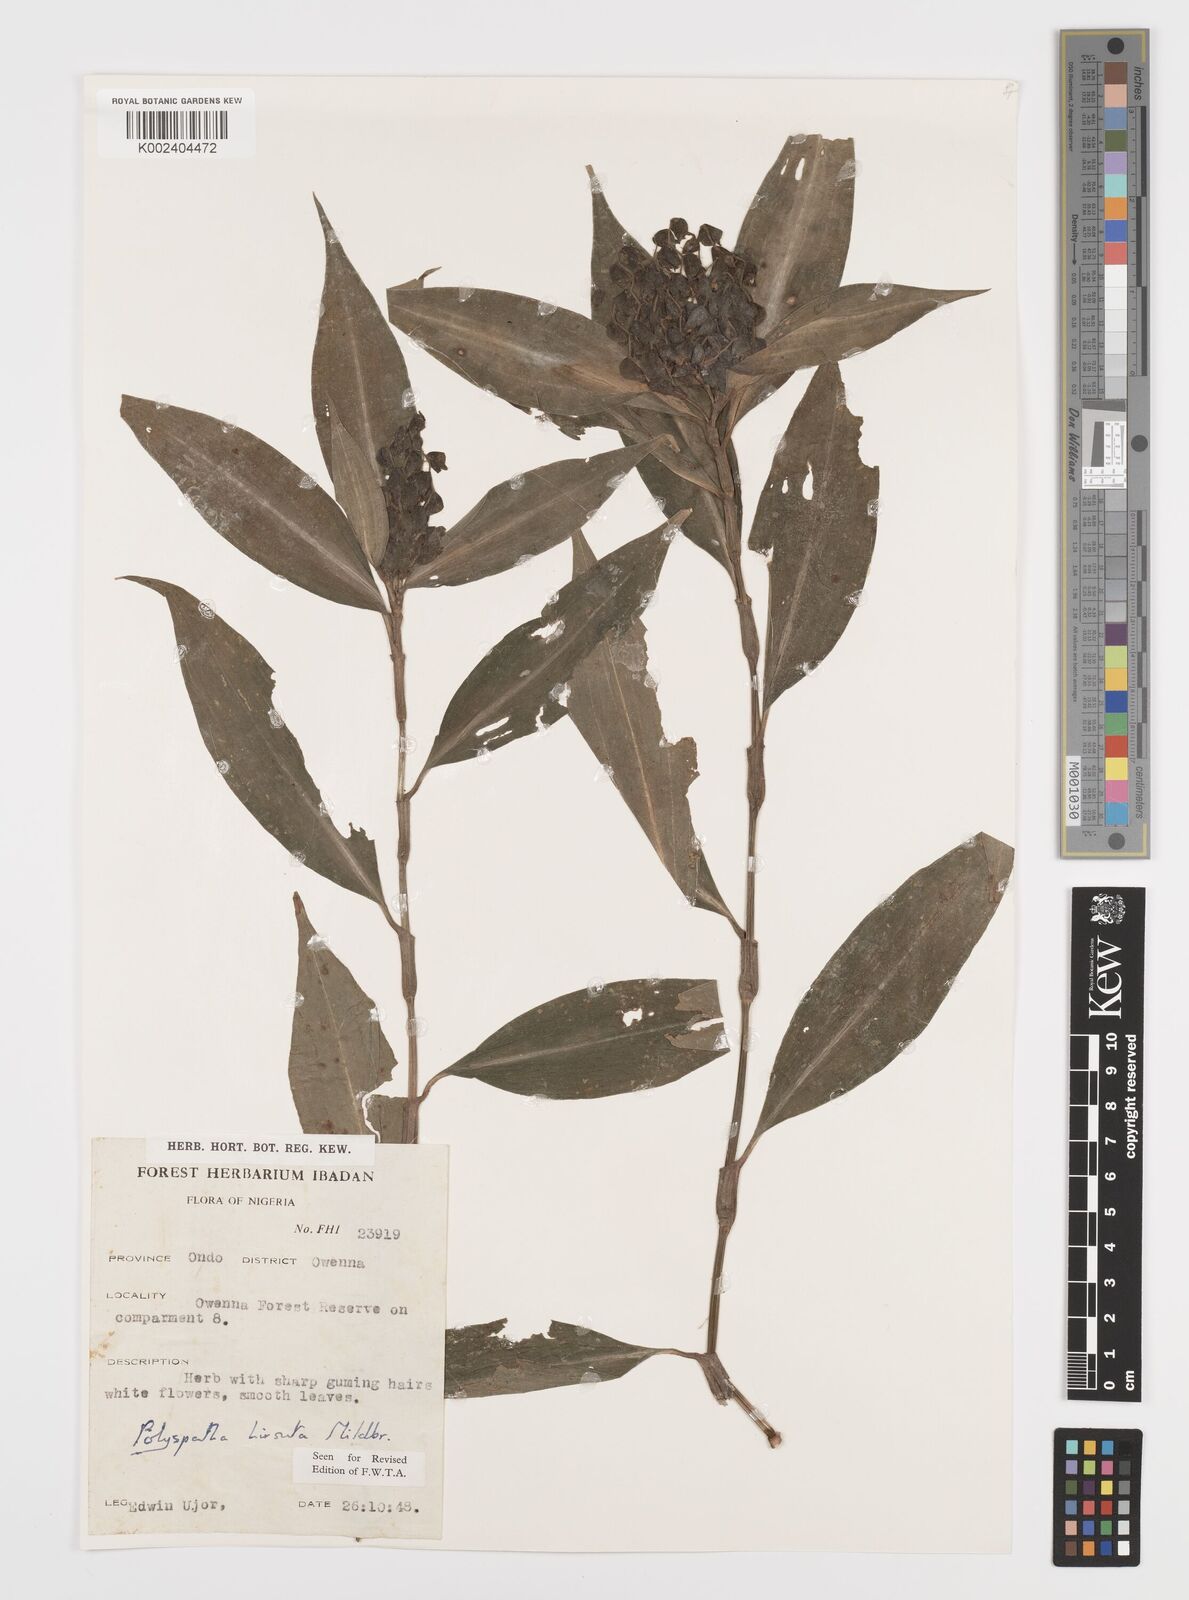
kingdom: Plantae
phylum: Tracheophyta
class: Liliopsida
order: Commelinales
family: Commelinaceae
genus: Polyspatha
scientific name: Polyspatha hirsuta
